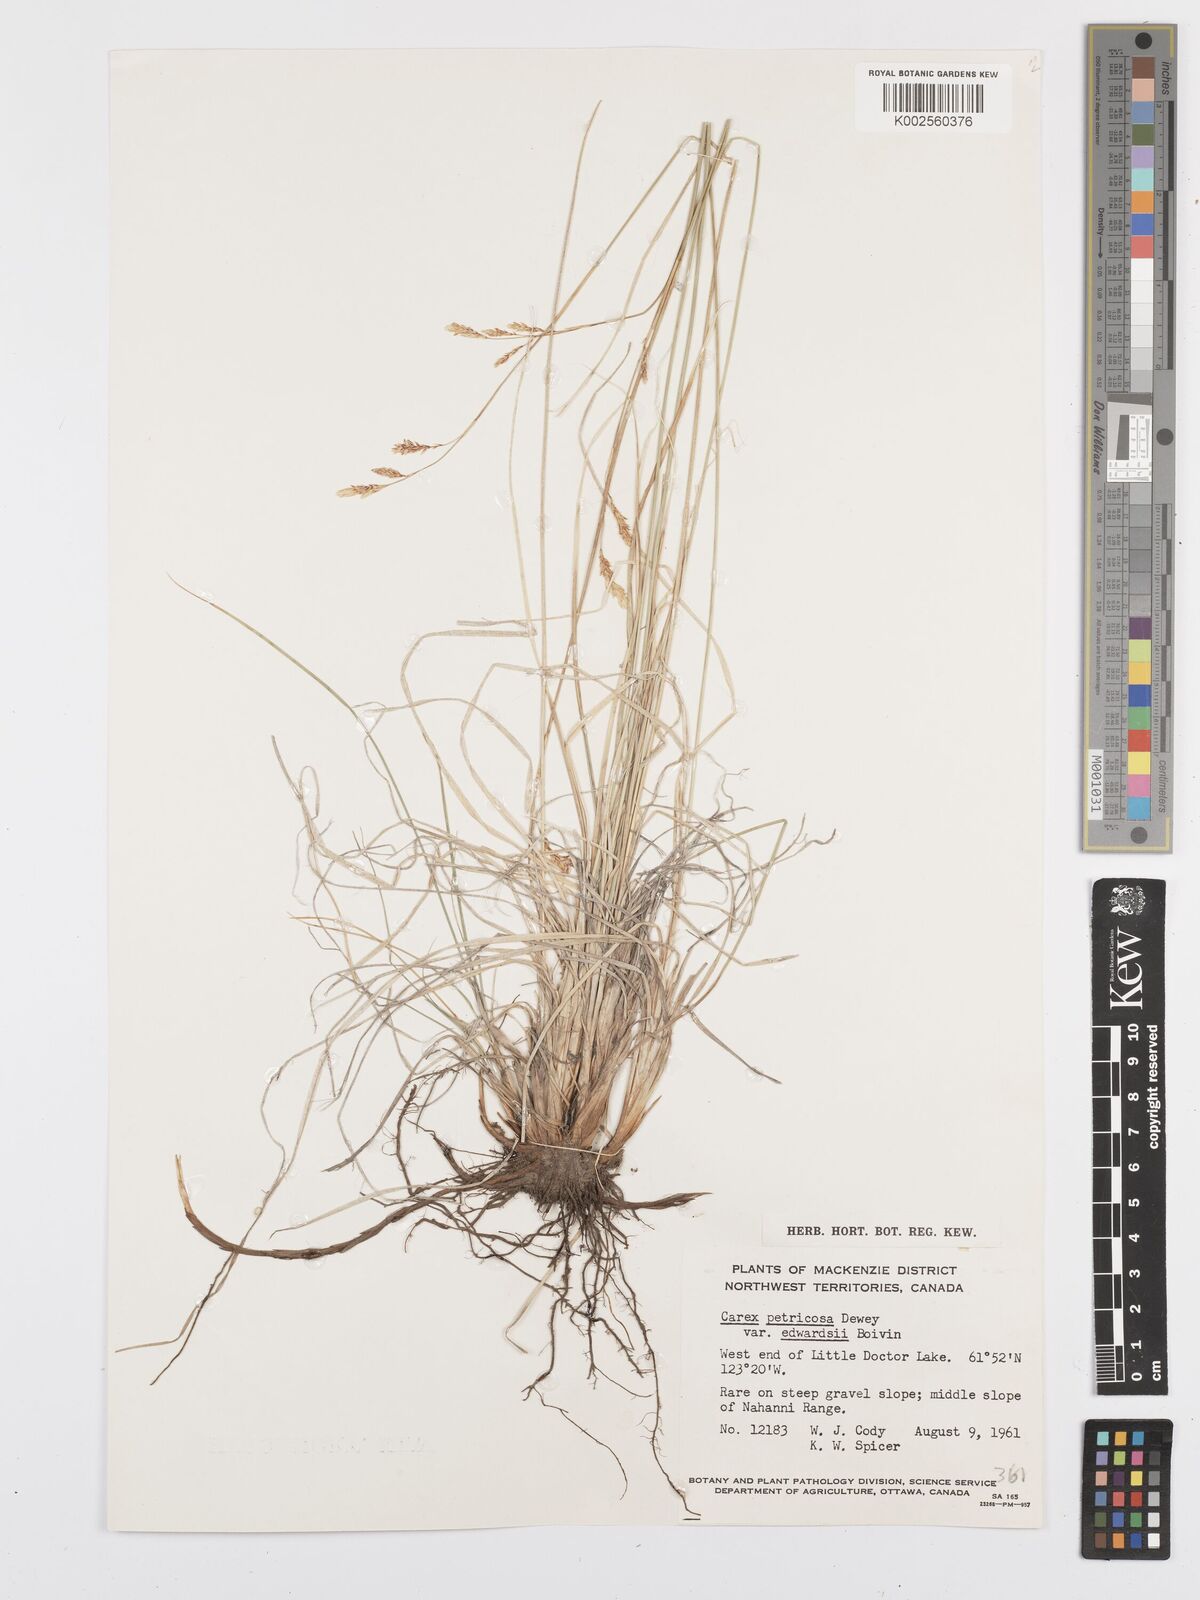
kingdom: Plantae
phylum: Tracheophyta
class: Liliopsida
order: Poales
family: Cyperaceae
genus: Carex
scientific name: Carex petricosa
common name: Rock sedge
